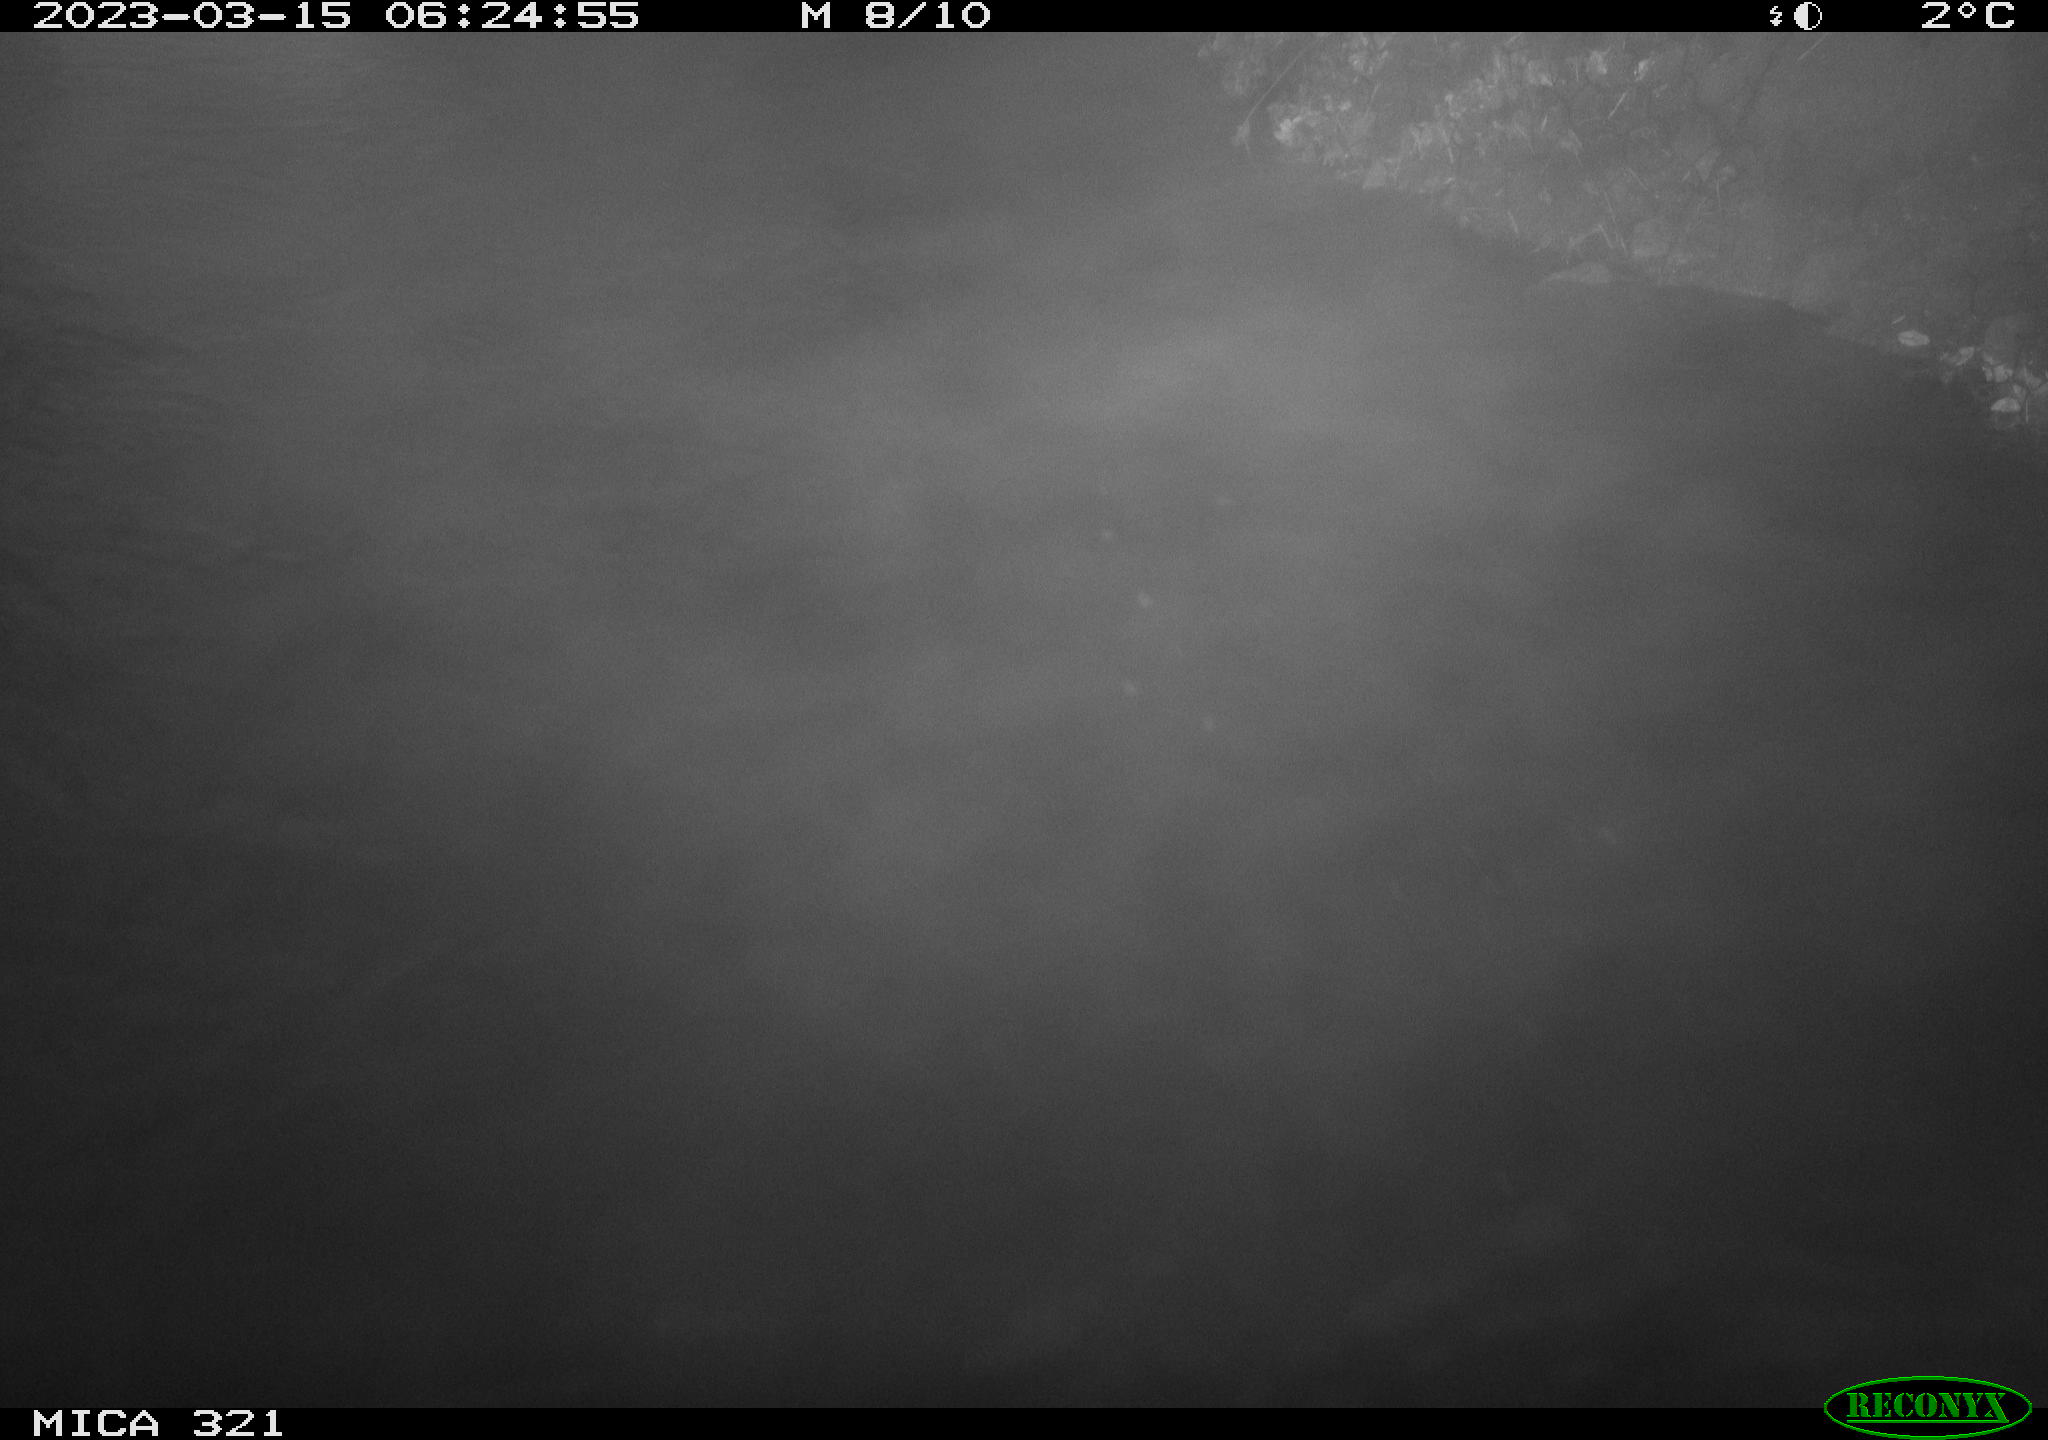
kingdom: Animalia
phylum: Chordata
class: Aves
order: Anseriformes
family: Anatidae
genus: Anas
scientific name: Anas
